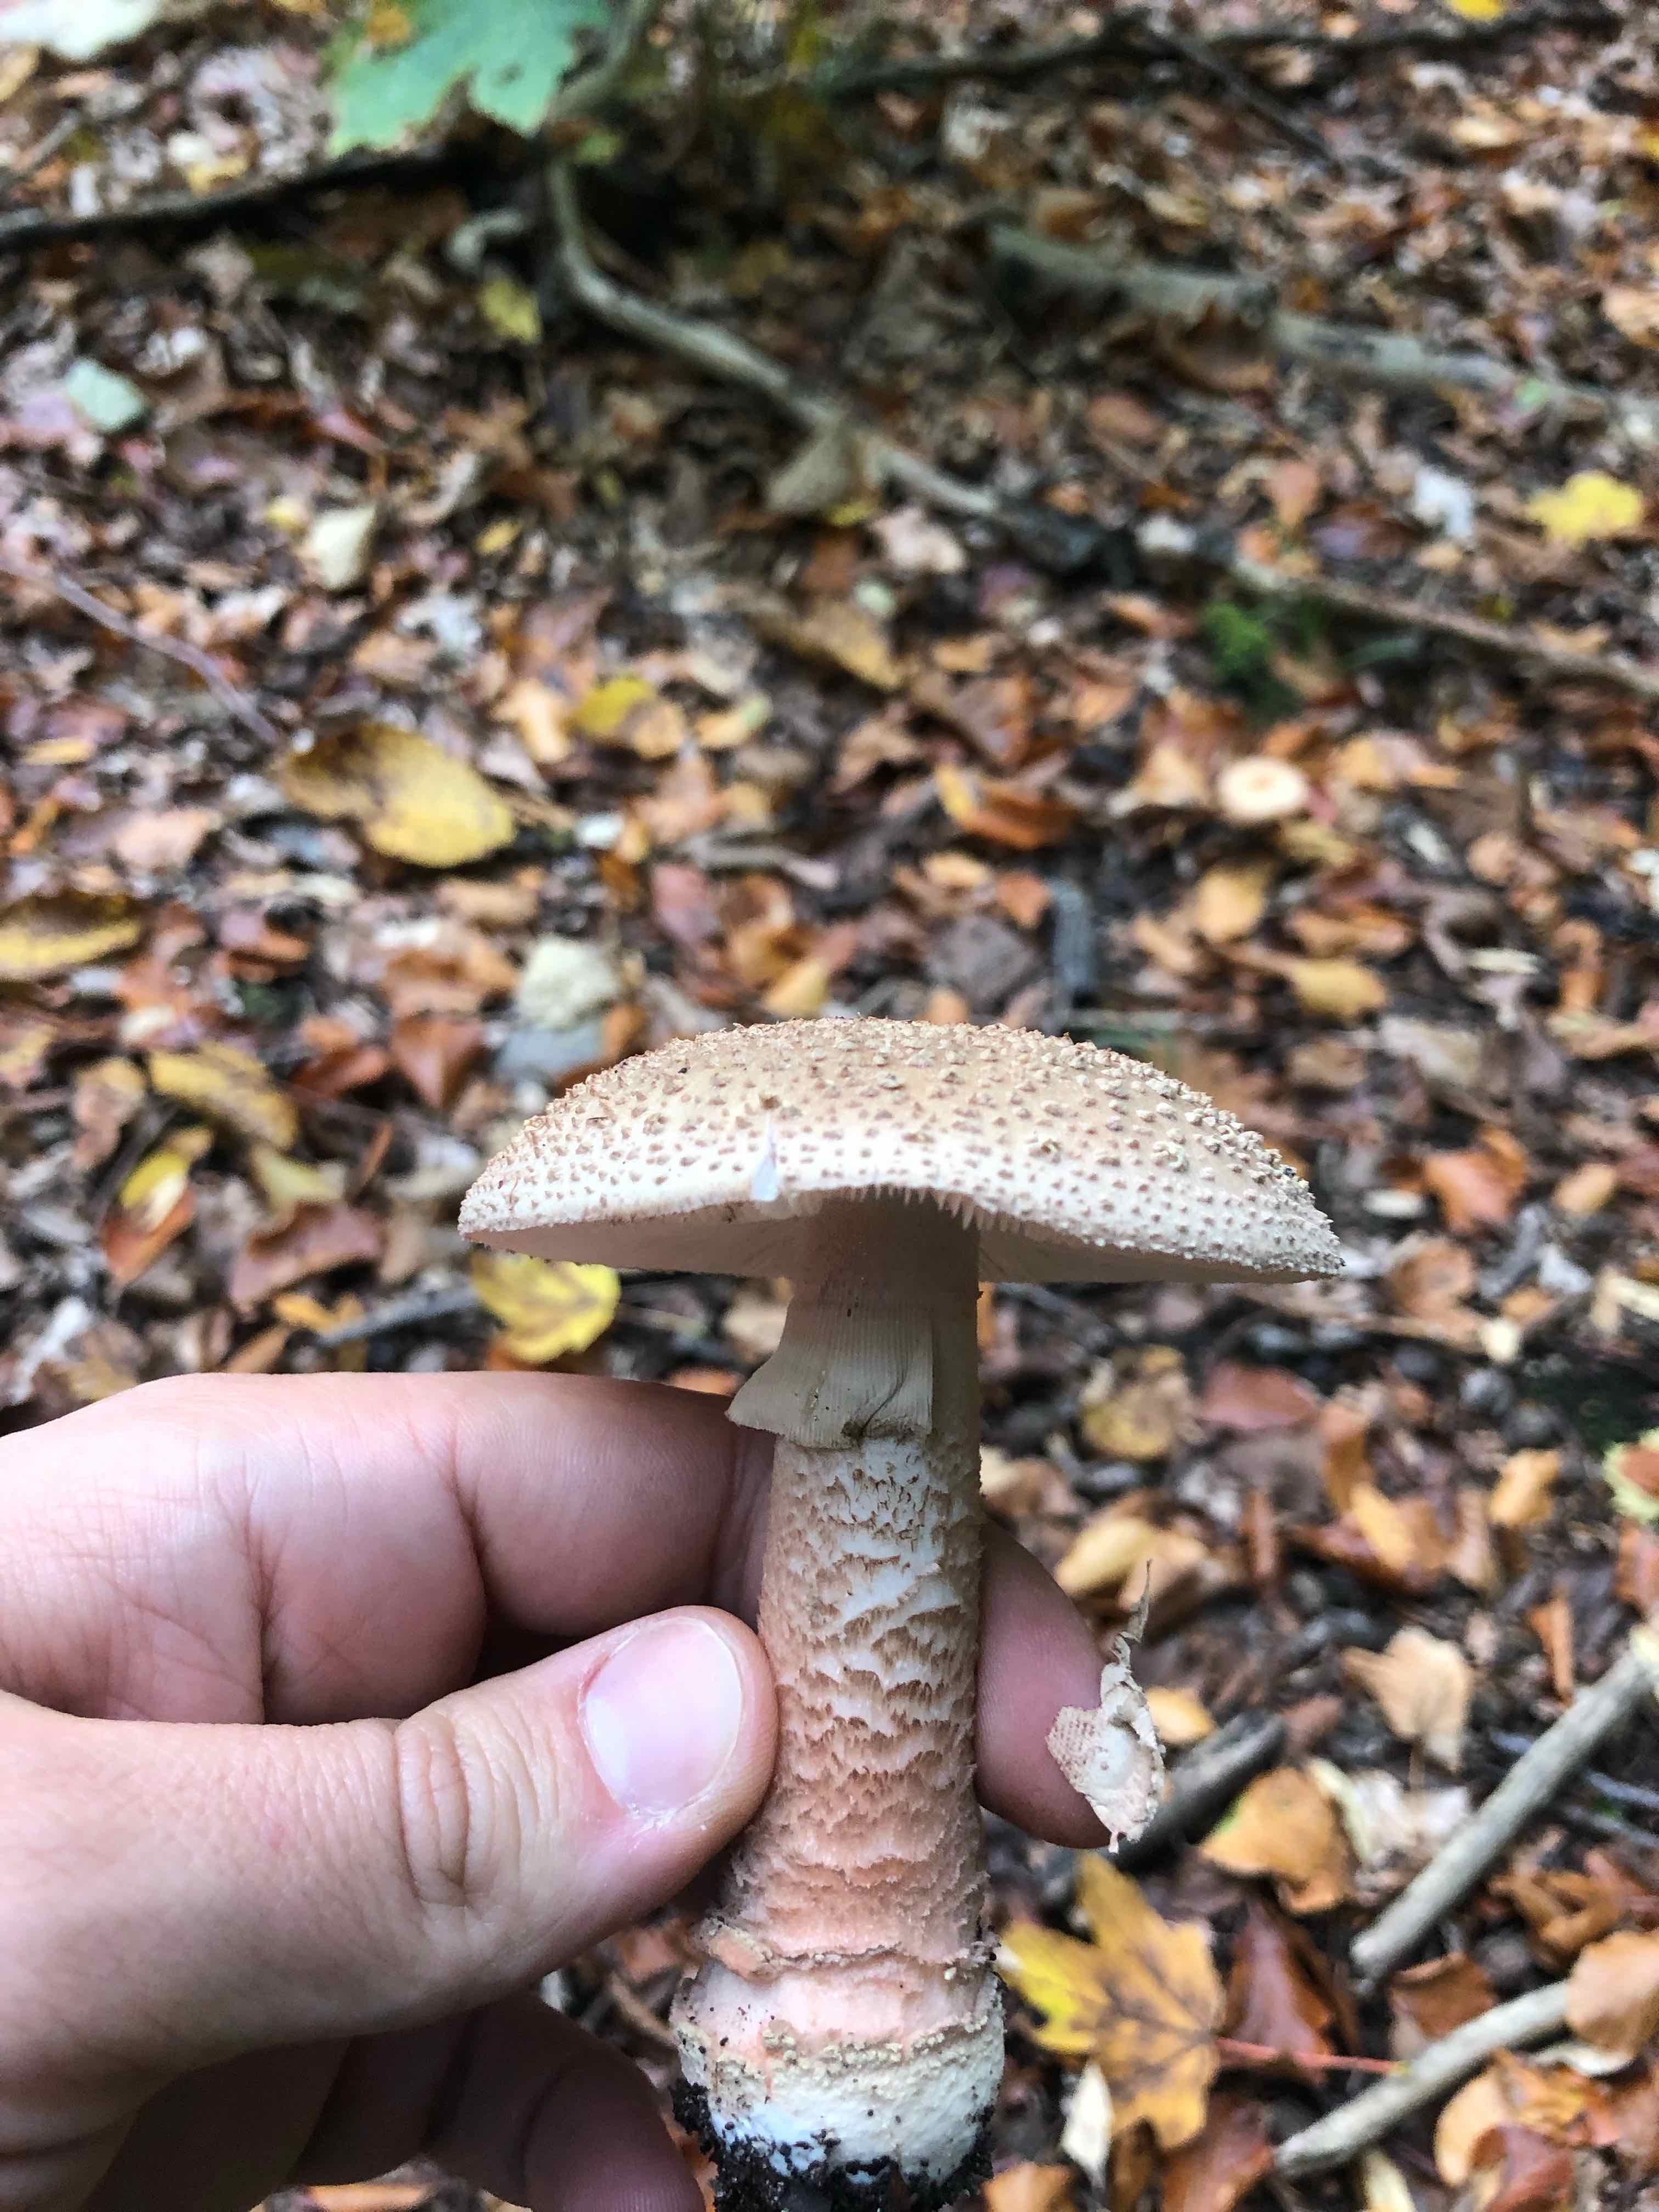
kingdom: Fungi
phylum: Basidiomycota
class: Agaricomycetes
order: Agaricales
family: Amanitaceae
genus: Amanita
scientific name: Amanita rubescens
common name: rødmende fluesvamp
